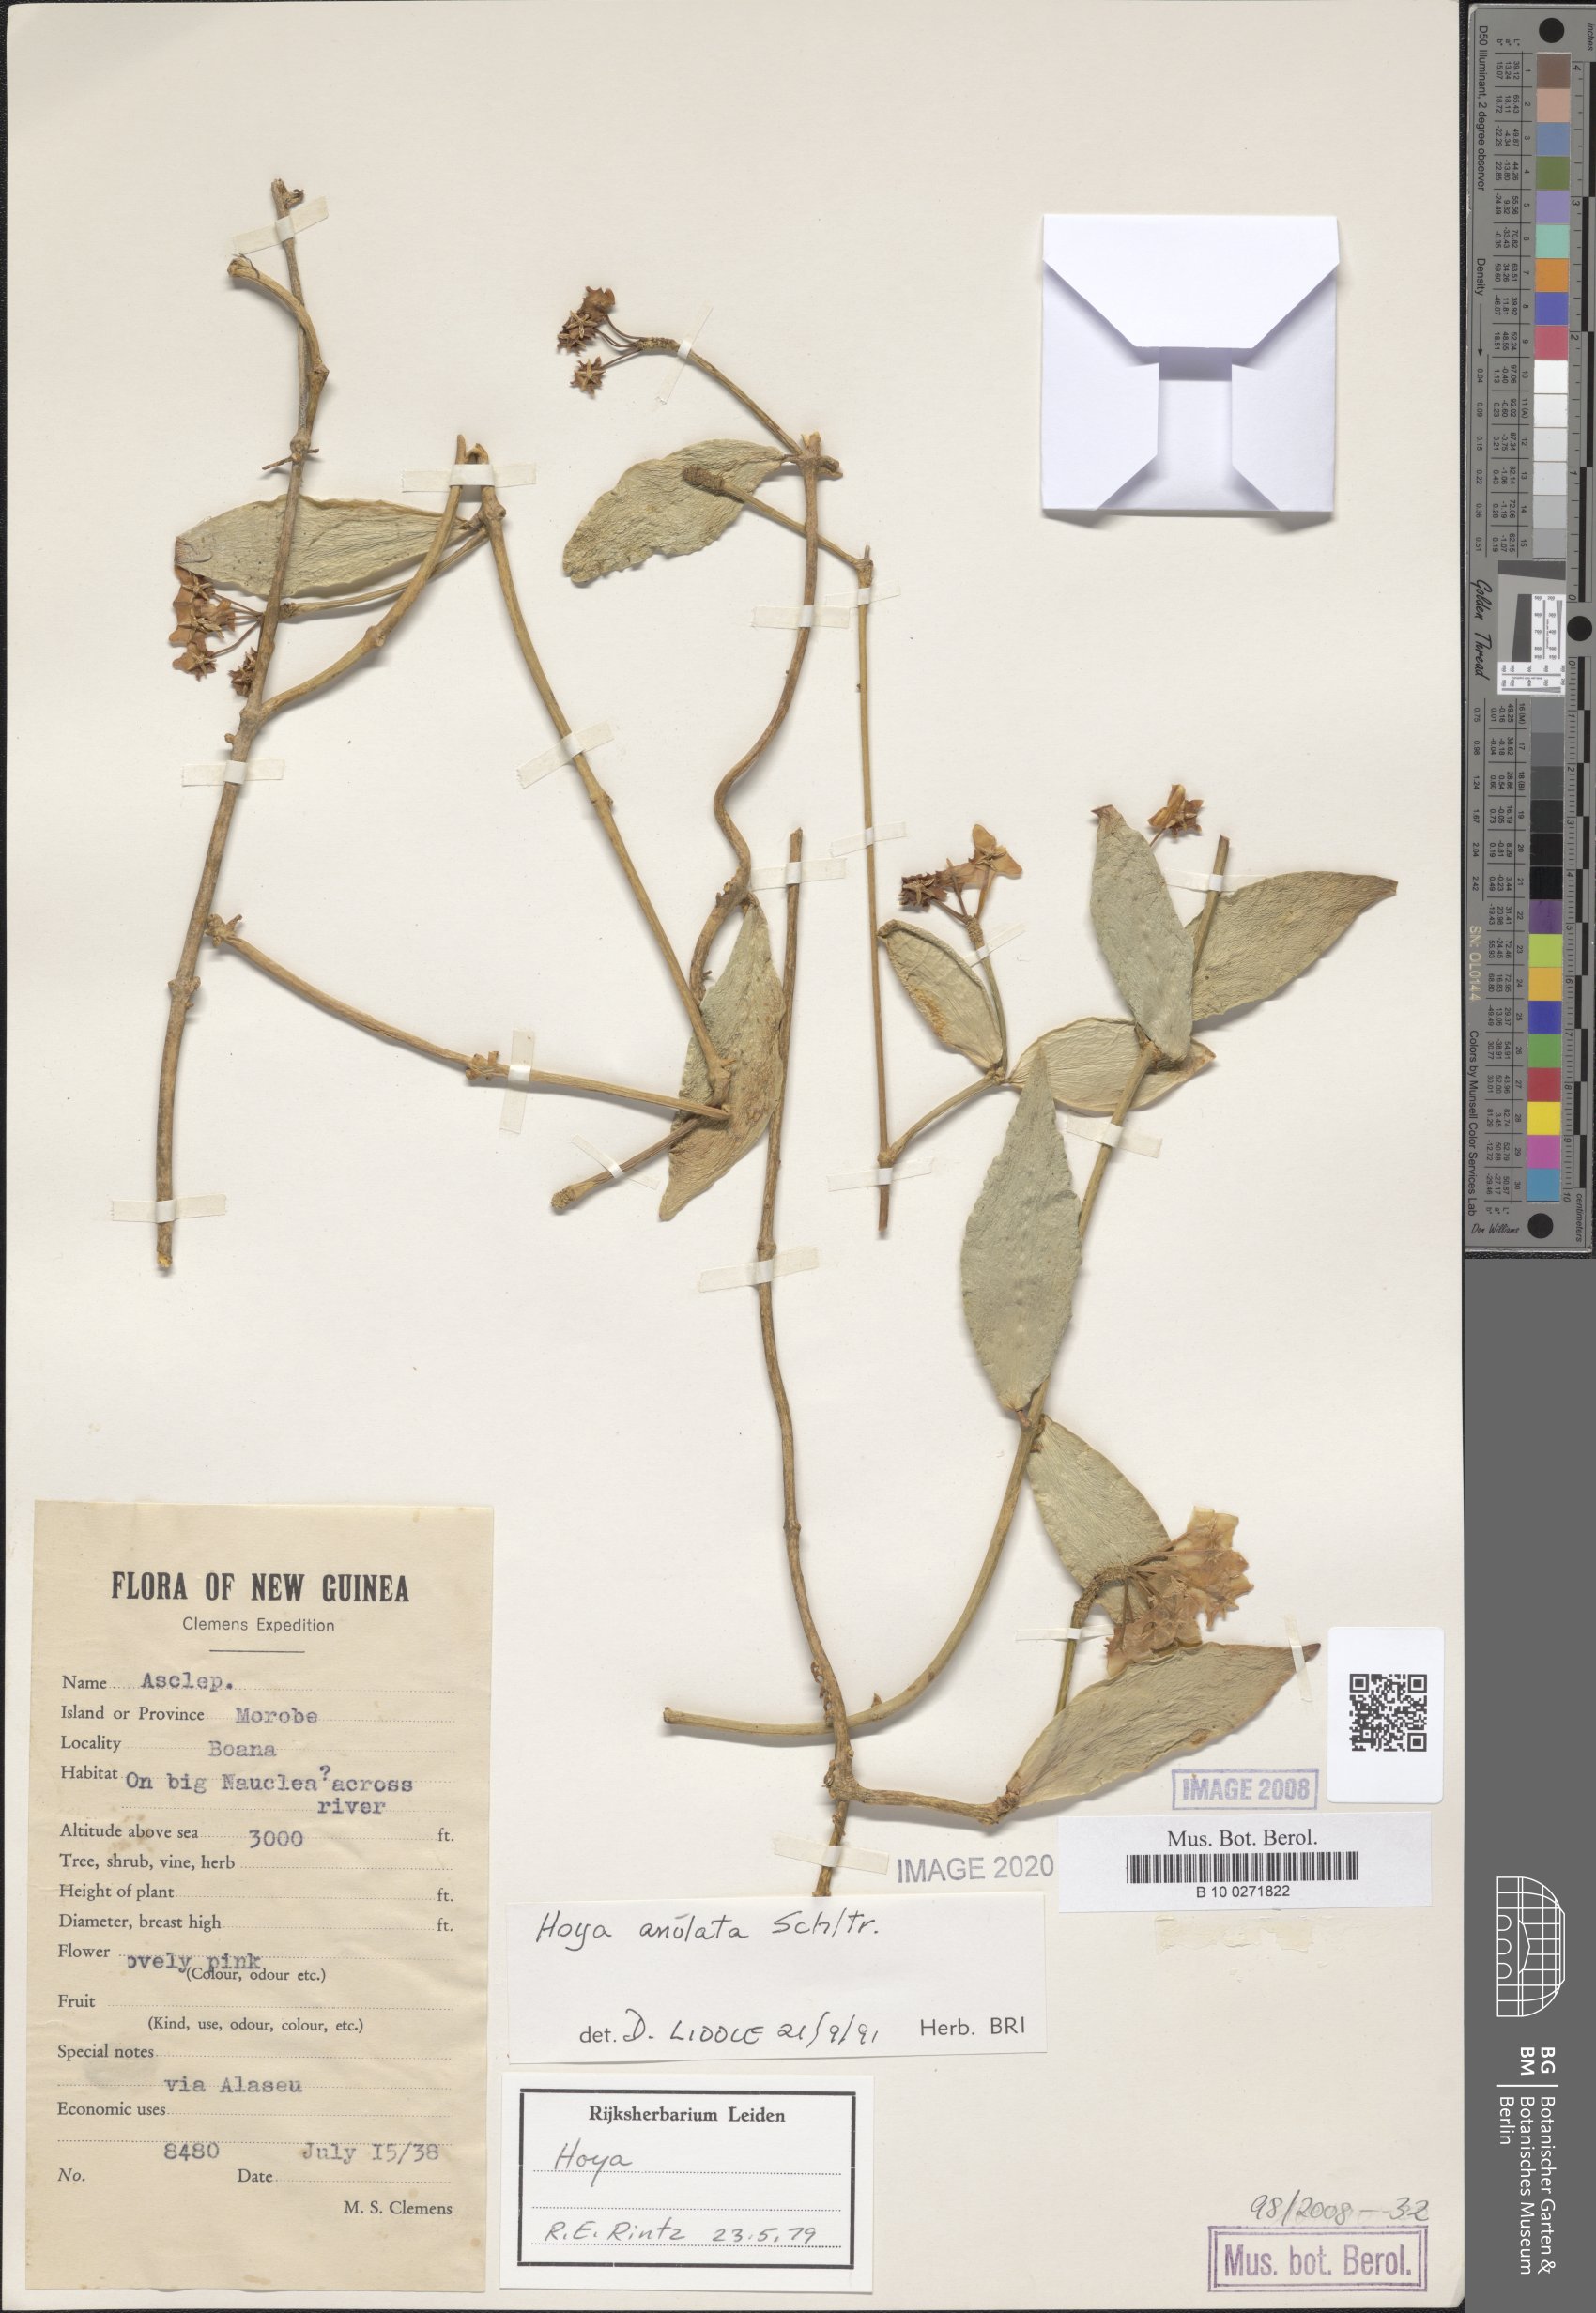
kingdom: Plantae
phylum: Tracheophyta
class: Magnoliopsida
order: Gentianales
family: Apocynaceae
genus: Hoya
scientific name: Hoya anulata
